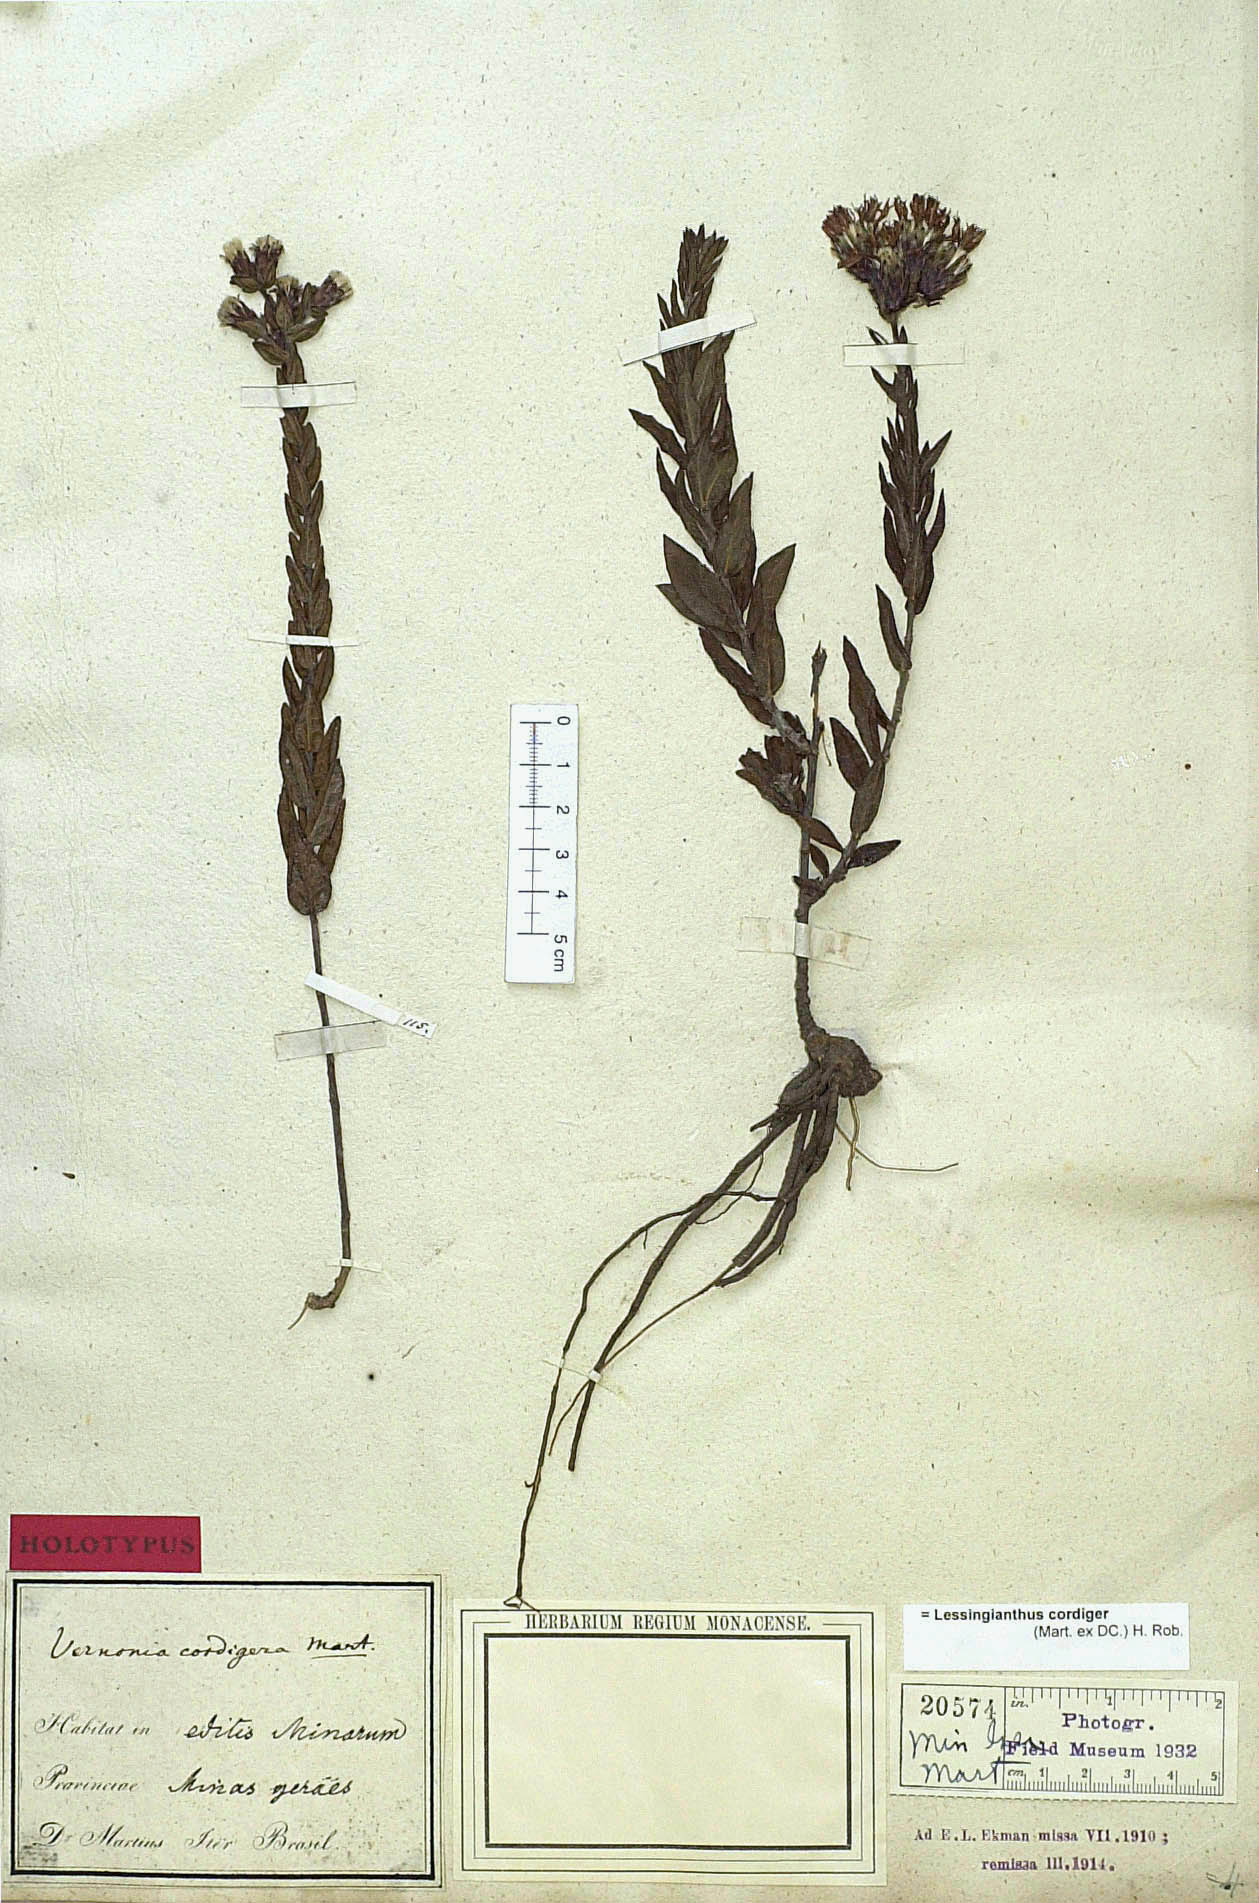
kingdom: Plantae
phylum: Tracheophyta
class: Magnoliopsida
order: Asterales
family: Asteraceae
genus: Lessingianthus
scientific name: Lessingianthus cordiger
